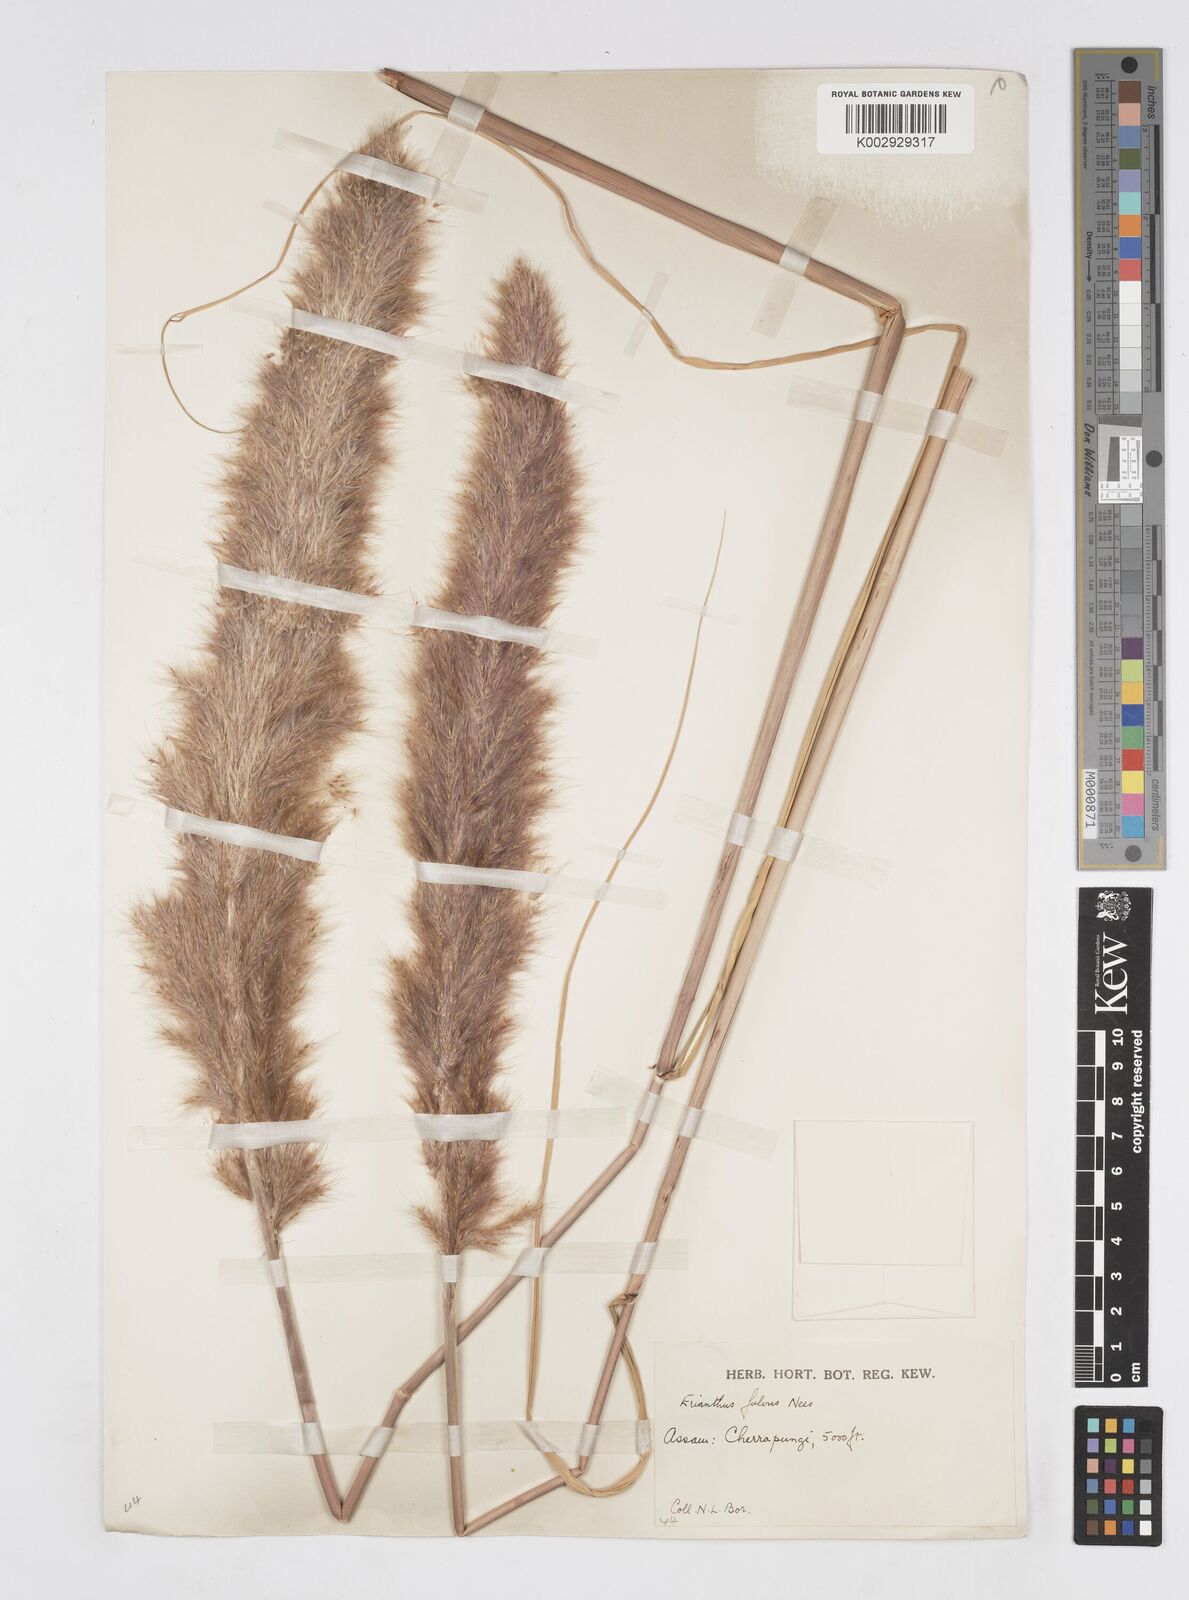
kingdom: Plantae
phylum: Tracheophyta
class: Liliopsida
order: Poales
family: Poaceae
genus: Tripidium
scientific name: Tripidium rufipilum
